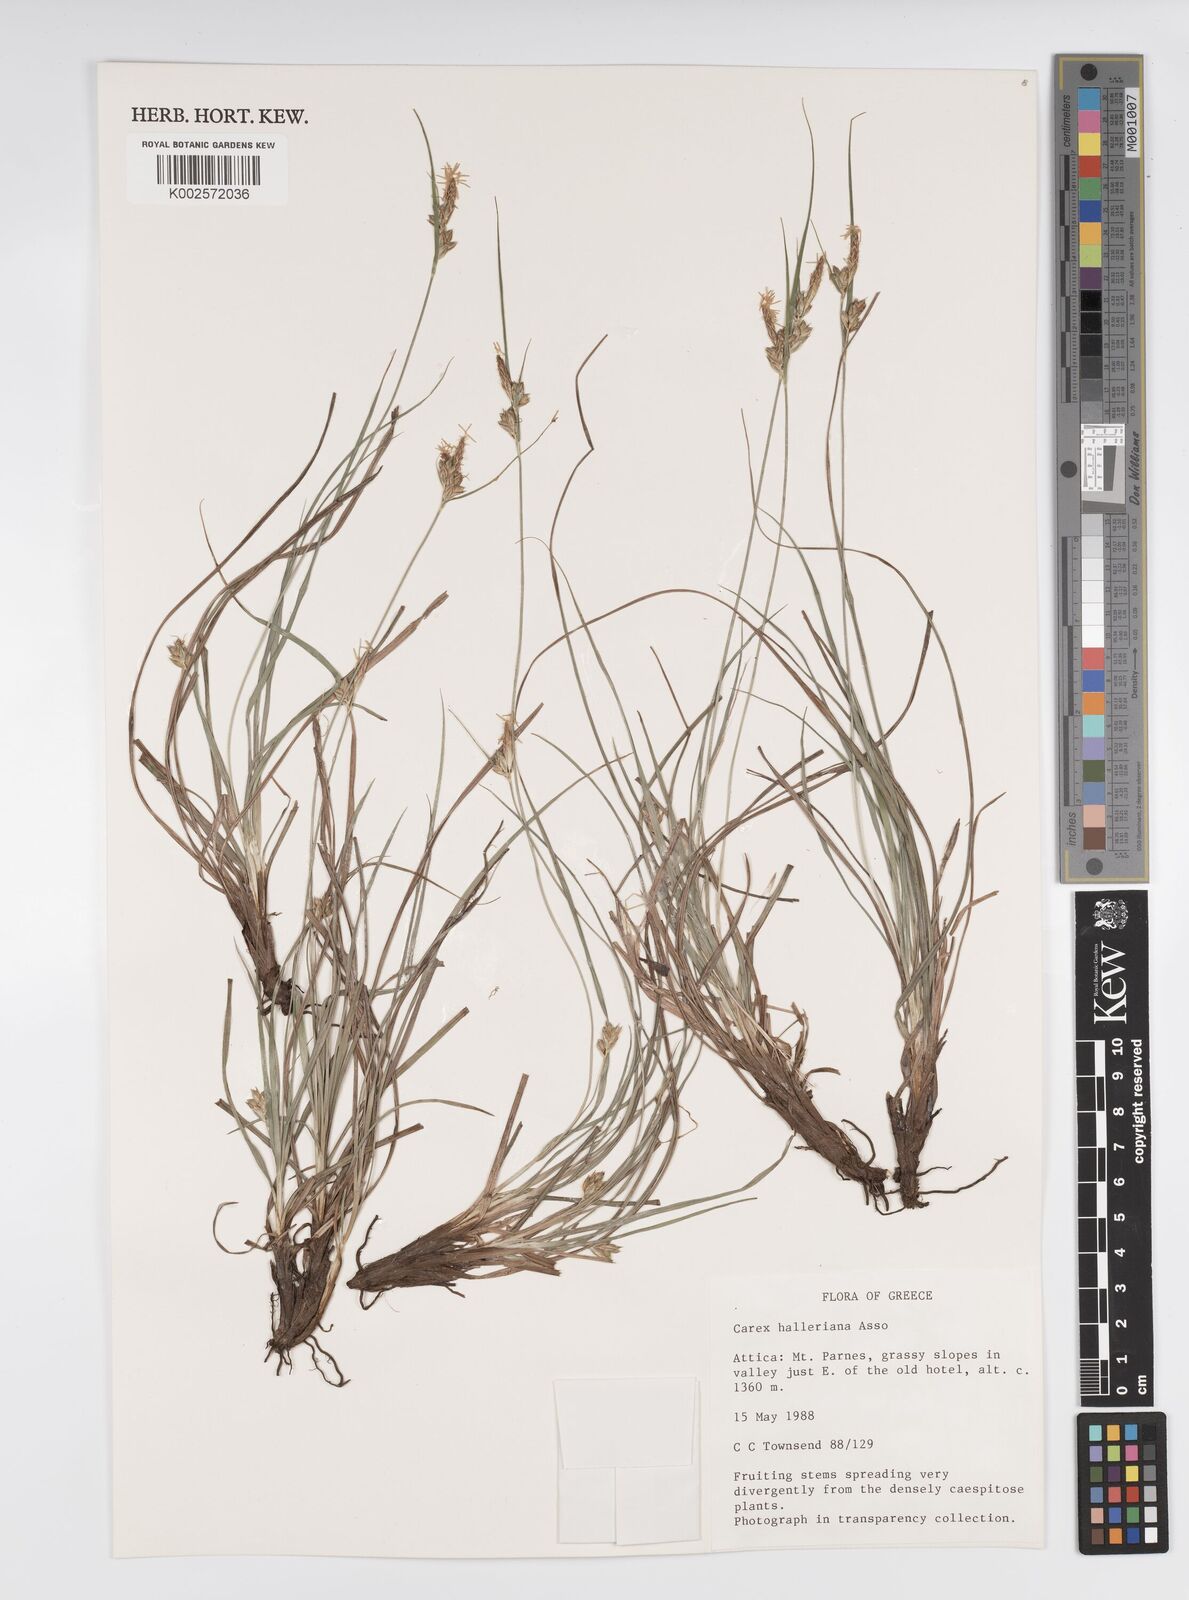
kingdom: Plantae
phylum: Tracheophyta
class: Liliopsida
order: Poales
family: Cyperaceae
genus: Carex
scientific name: Carex halleriana
